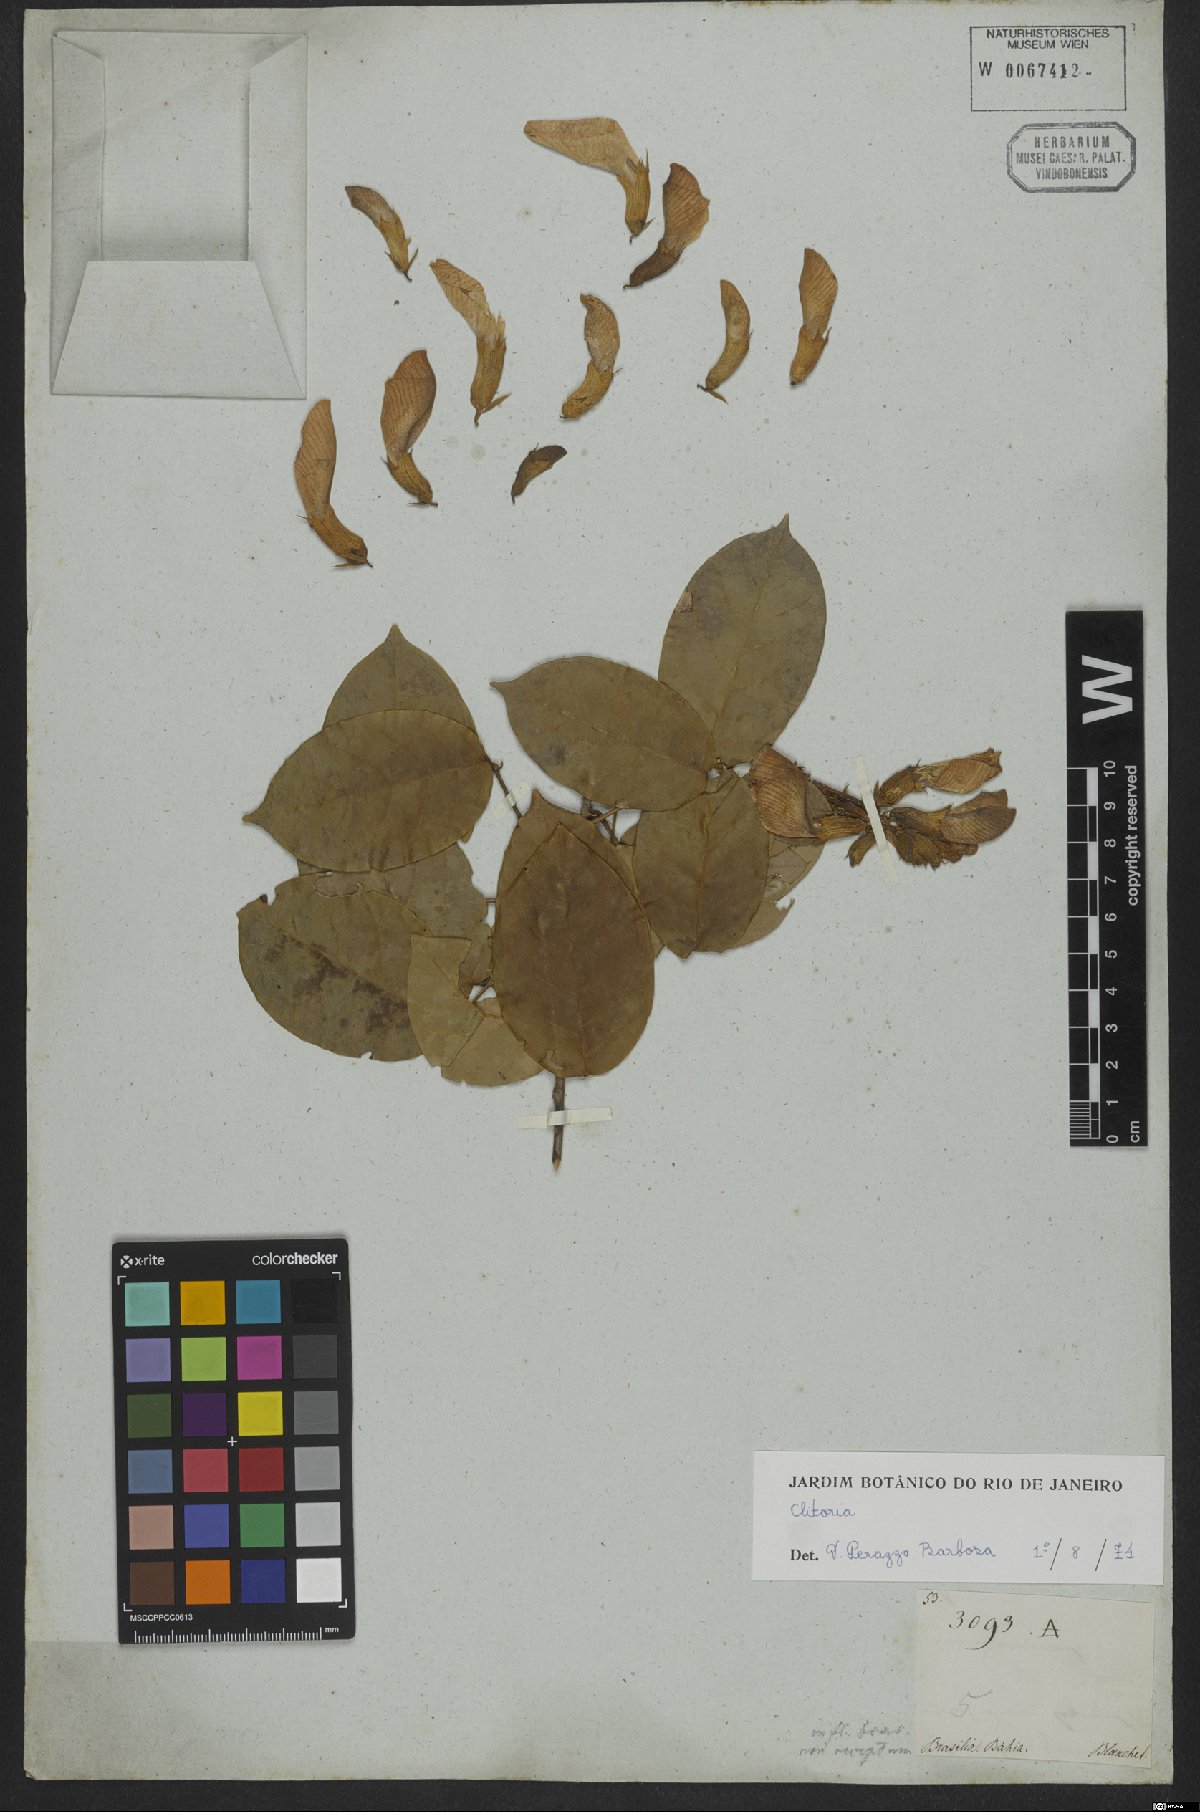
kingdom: Plantae
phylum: Tracheophyta
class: Magnoliopsida
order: Fabales
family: Fabaceae
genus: Clitoria
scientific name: Clitoria
